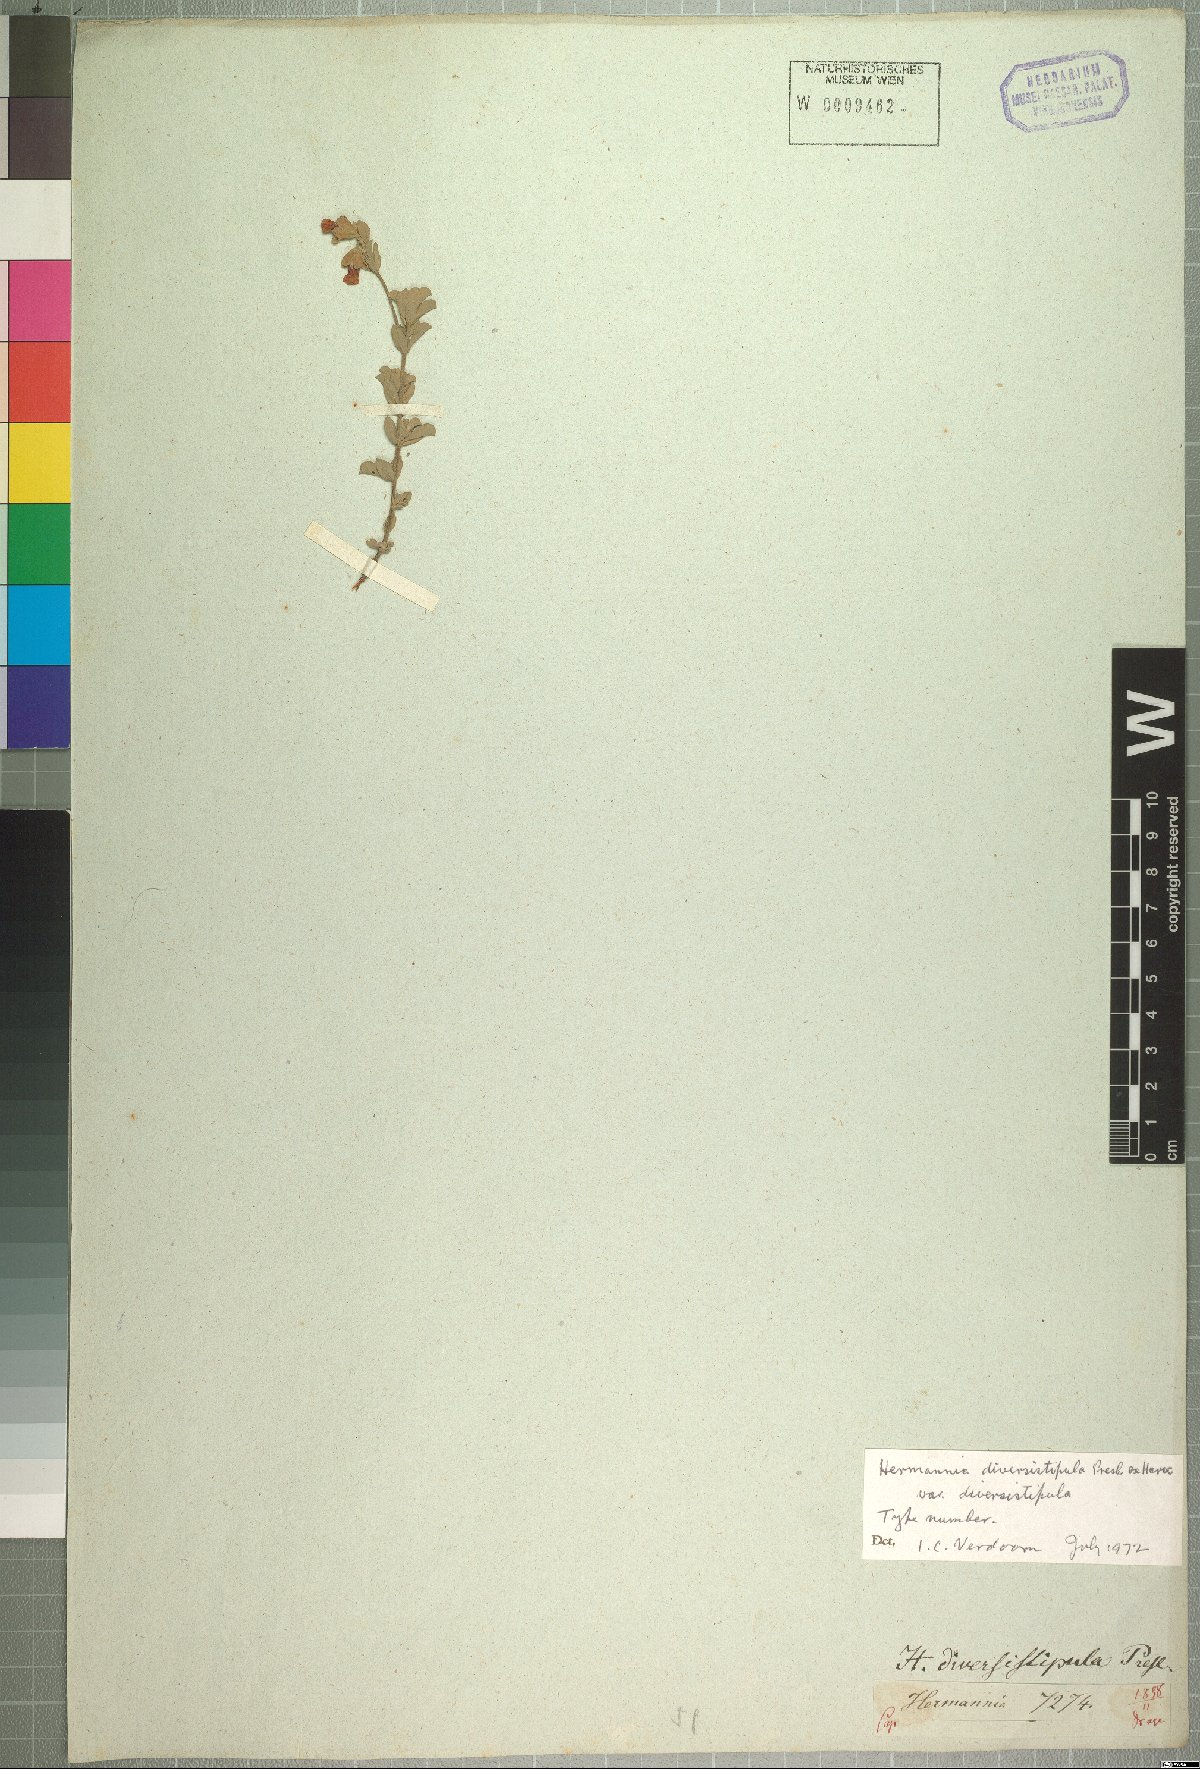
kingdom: Plantae
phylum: Tracheophyta
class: Magnoliopsida
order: Malvales
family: Malvaceae
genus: Hermannia
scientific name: Hermannia diversistipula
